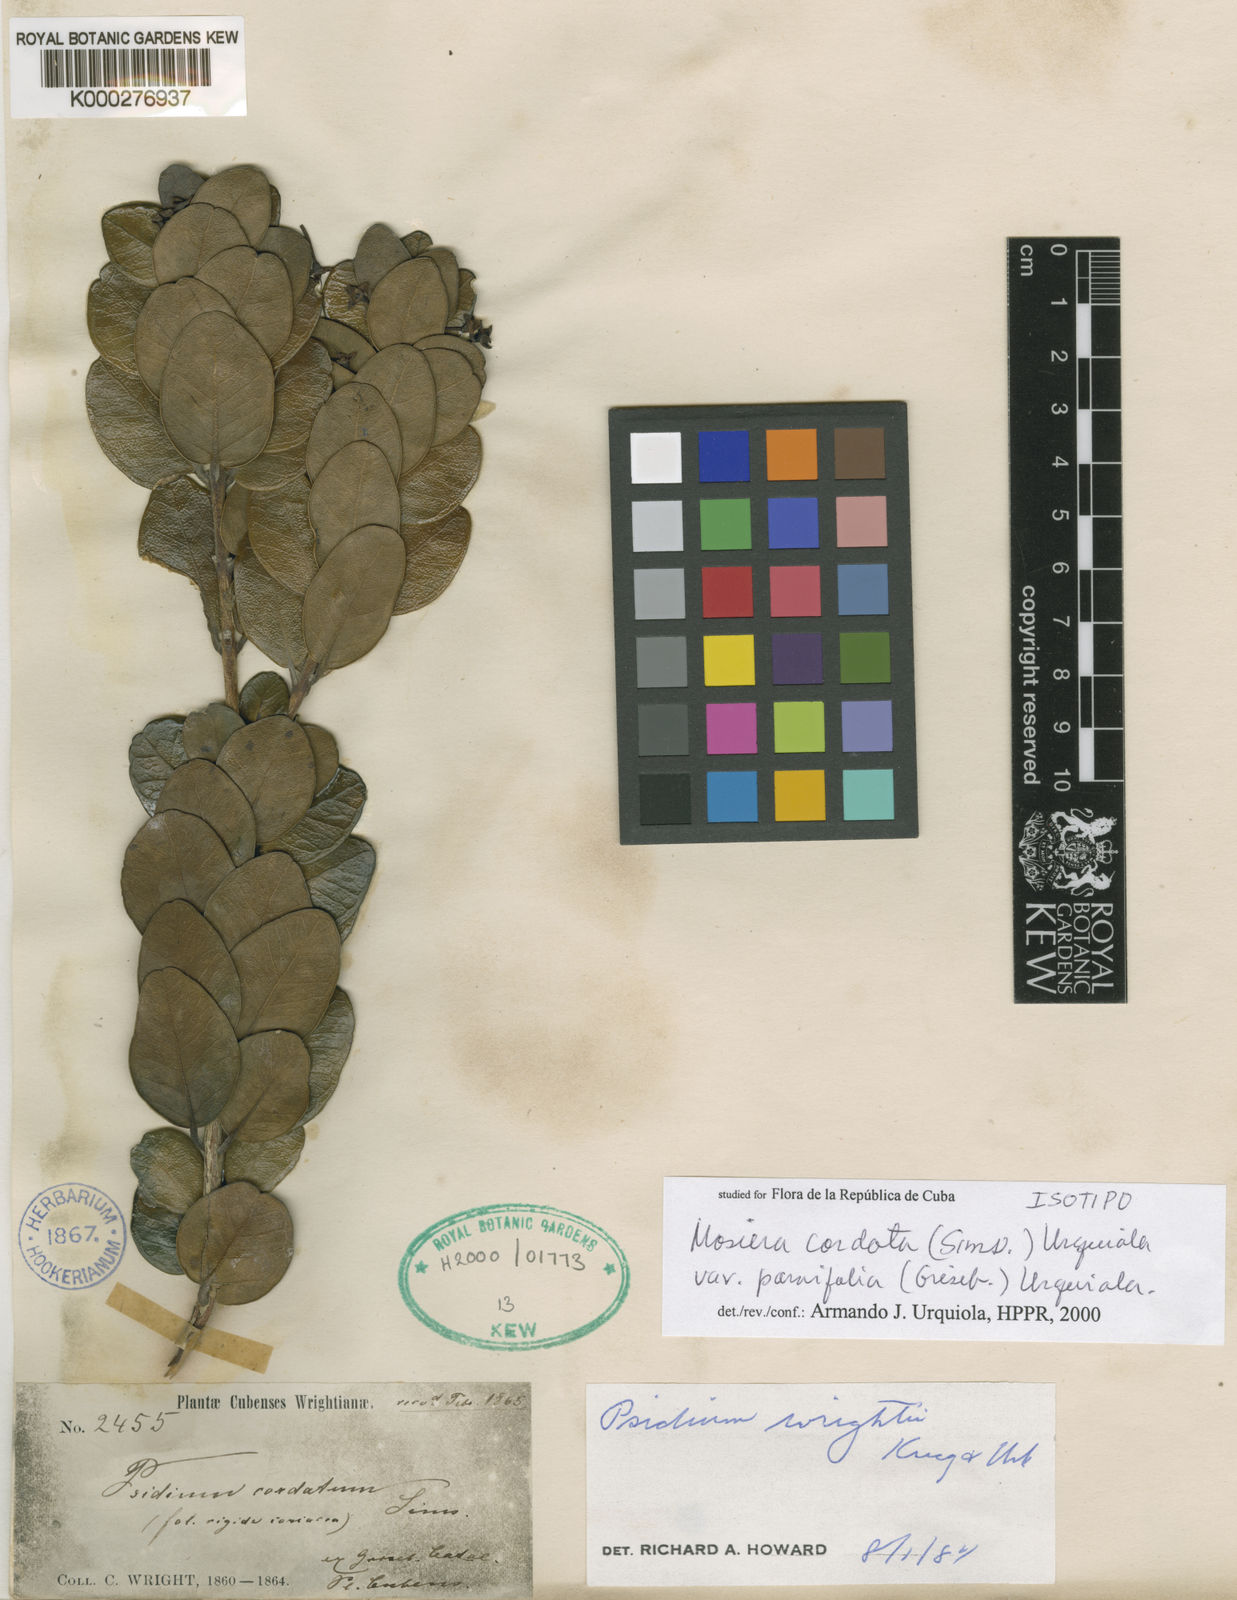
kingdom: Plantae
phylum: Tracheophyta
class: Magnoliopsida
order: Myrtales
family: Myrtaceae
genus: Mosiera
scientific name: Mosiera
